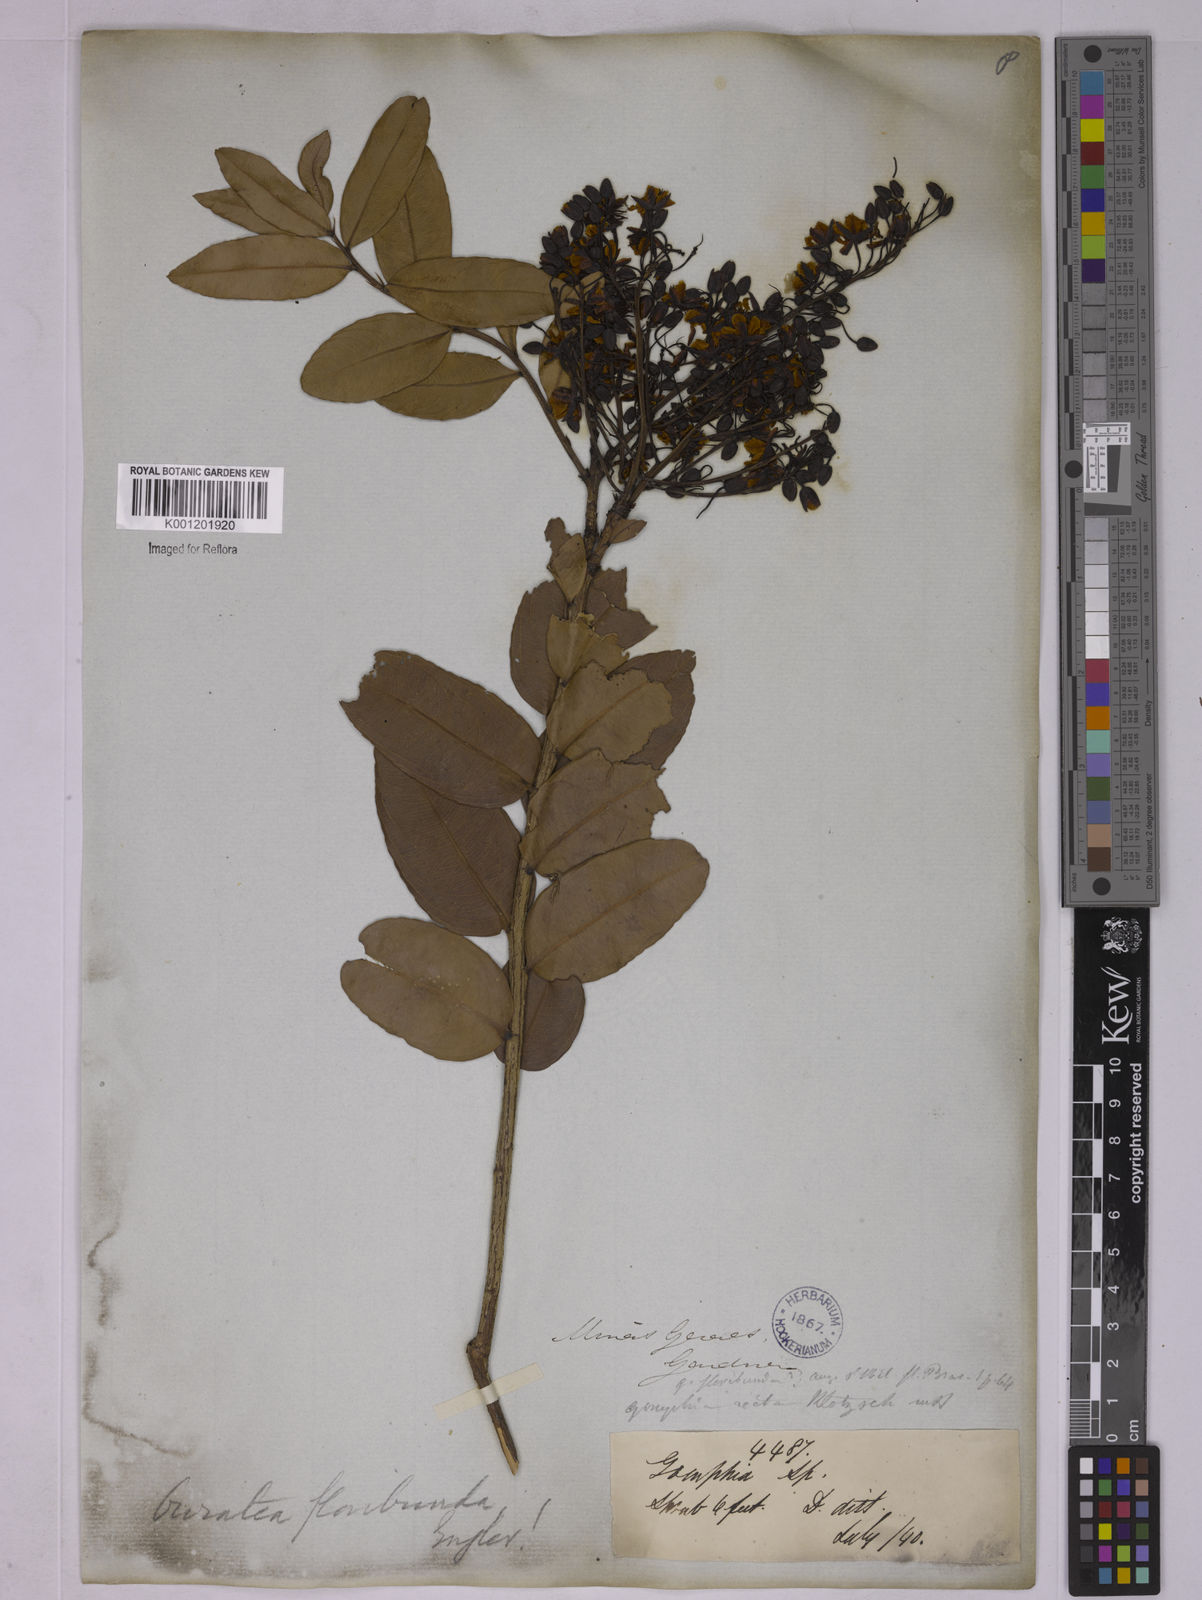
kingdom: Plantae
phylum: Tracheophyta
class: Magnoliopsida
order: Malpighiales
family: Ochnaceae
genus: Ouratea
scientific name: Ouratea floribunda
